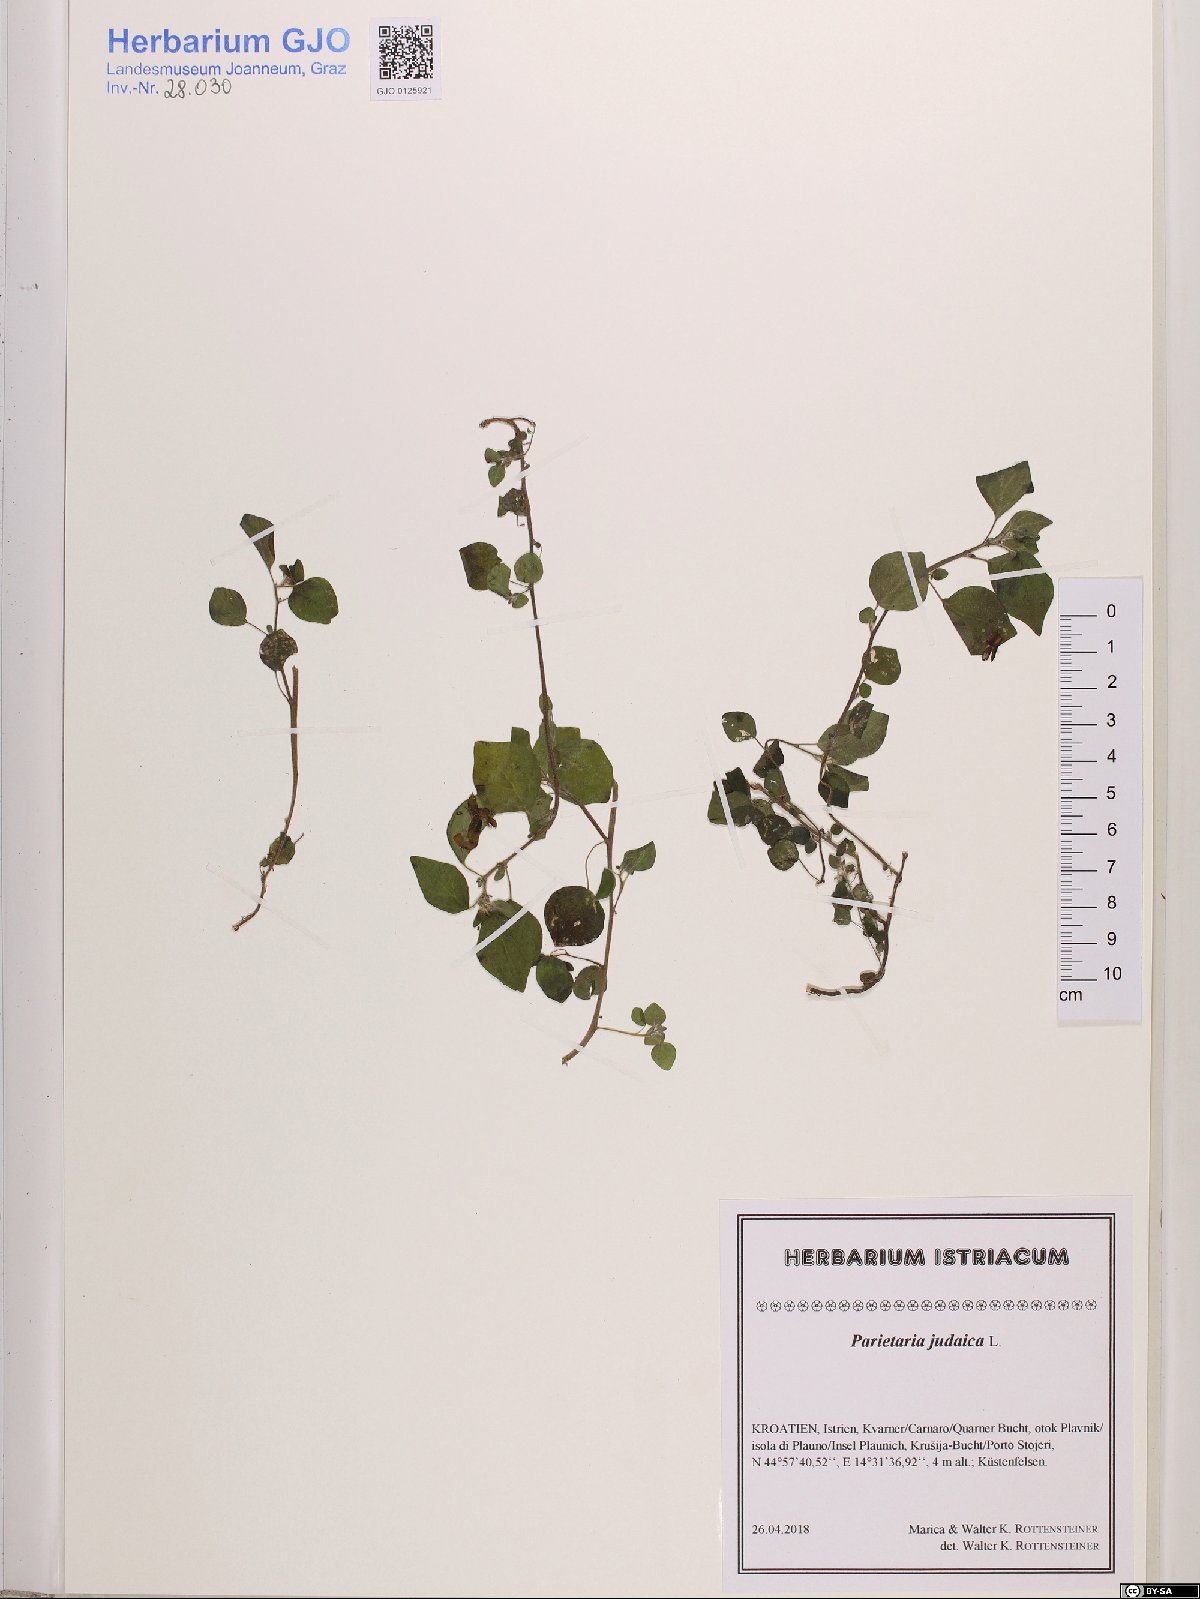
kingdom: Plantae
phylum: Tracheophyta
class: Magnoliopsida
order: Rosales
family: Urticaceae
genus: Parietaria
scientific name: Parietaria judaica
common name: Pellitory-of-the-wall
